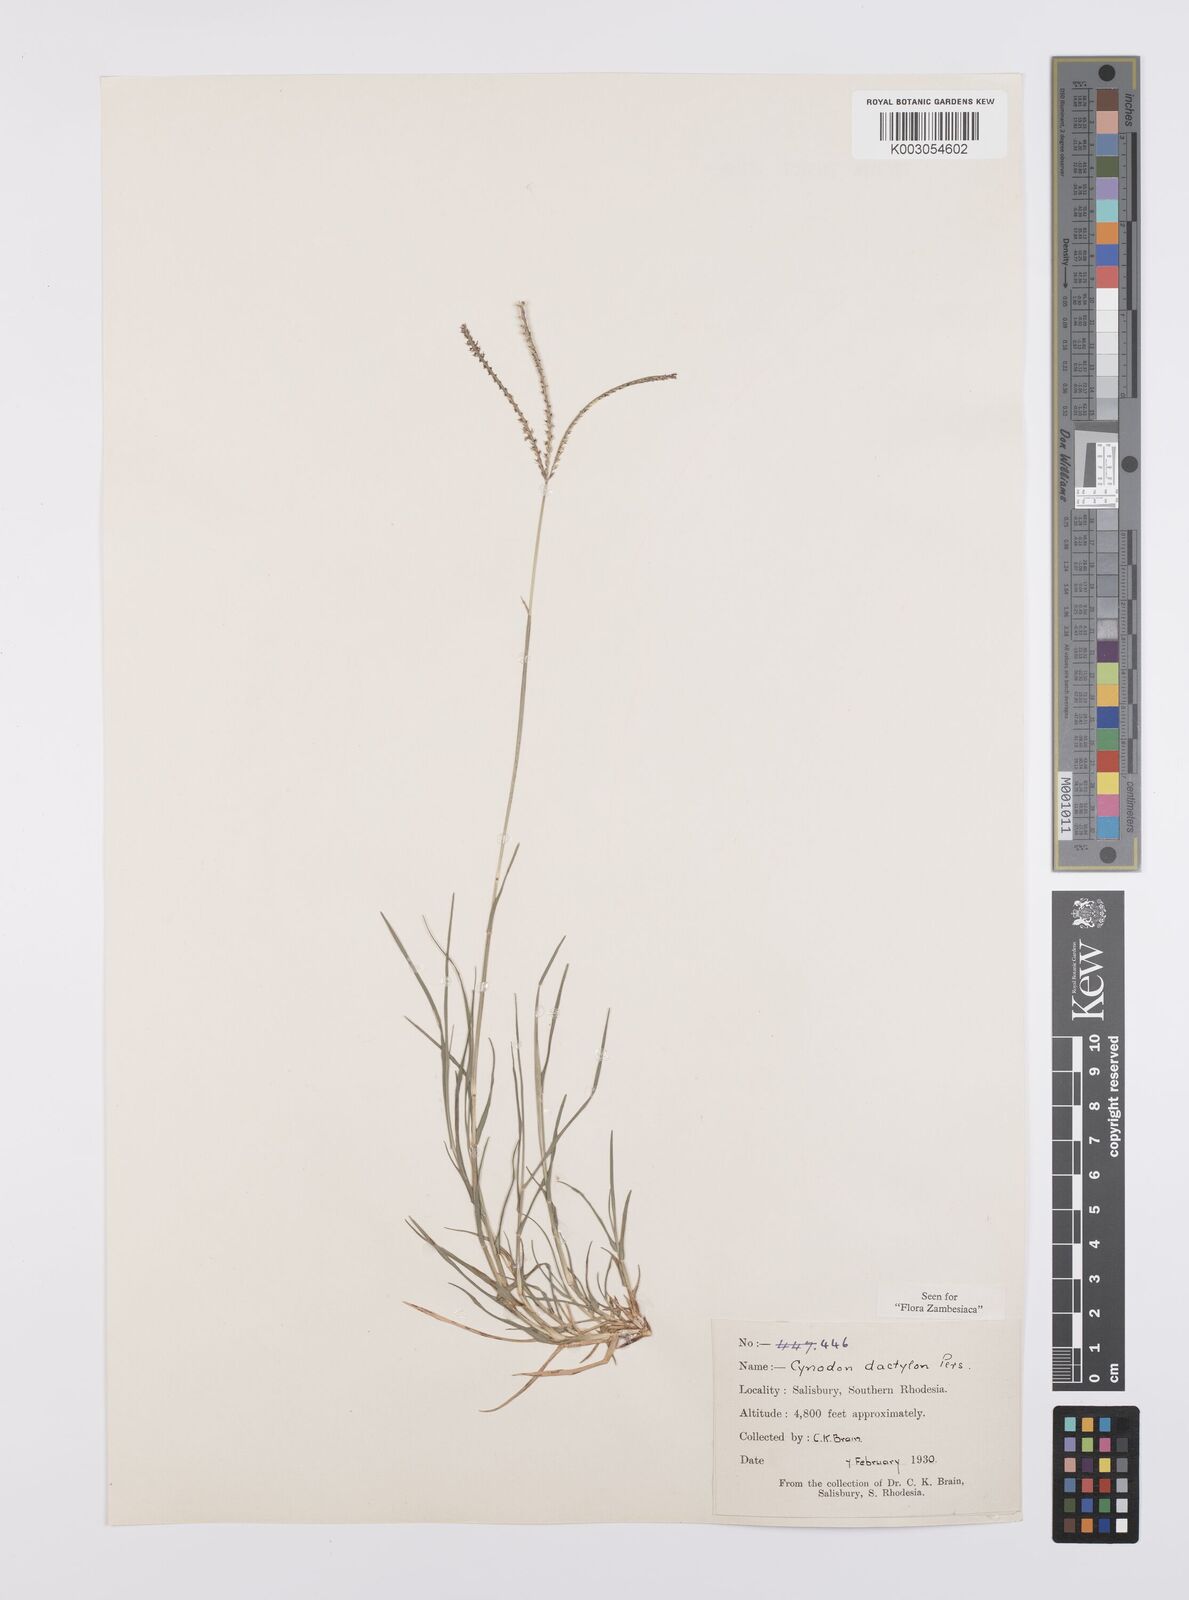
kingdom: Plantae
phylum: Tracheophyta
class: Liliopsida
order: Poales
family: Poaceae
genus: Cynodon
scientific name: Cynodon dactylon
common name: Bermuda grass
